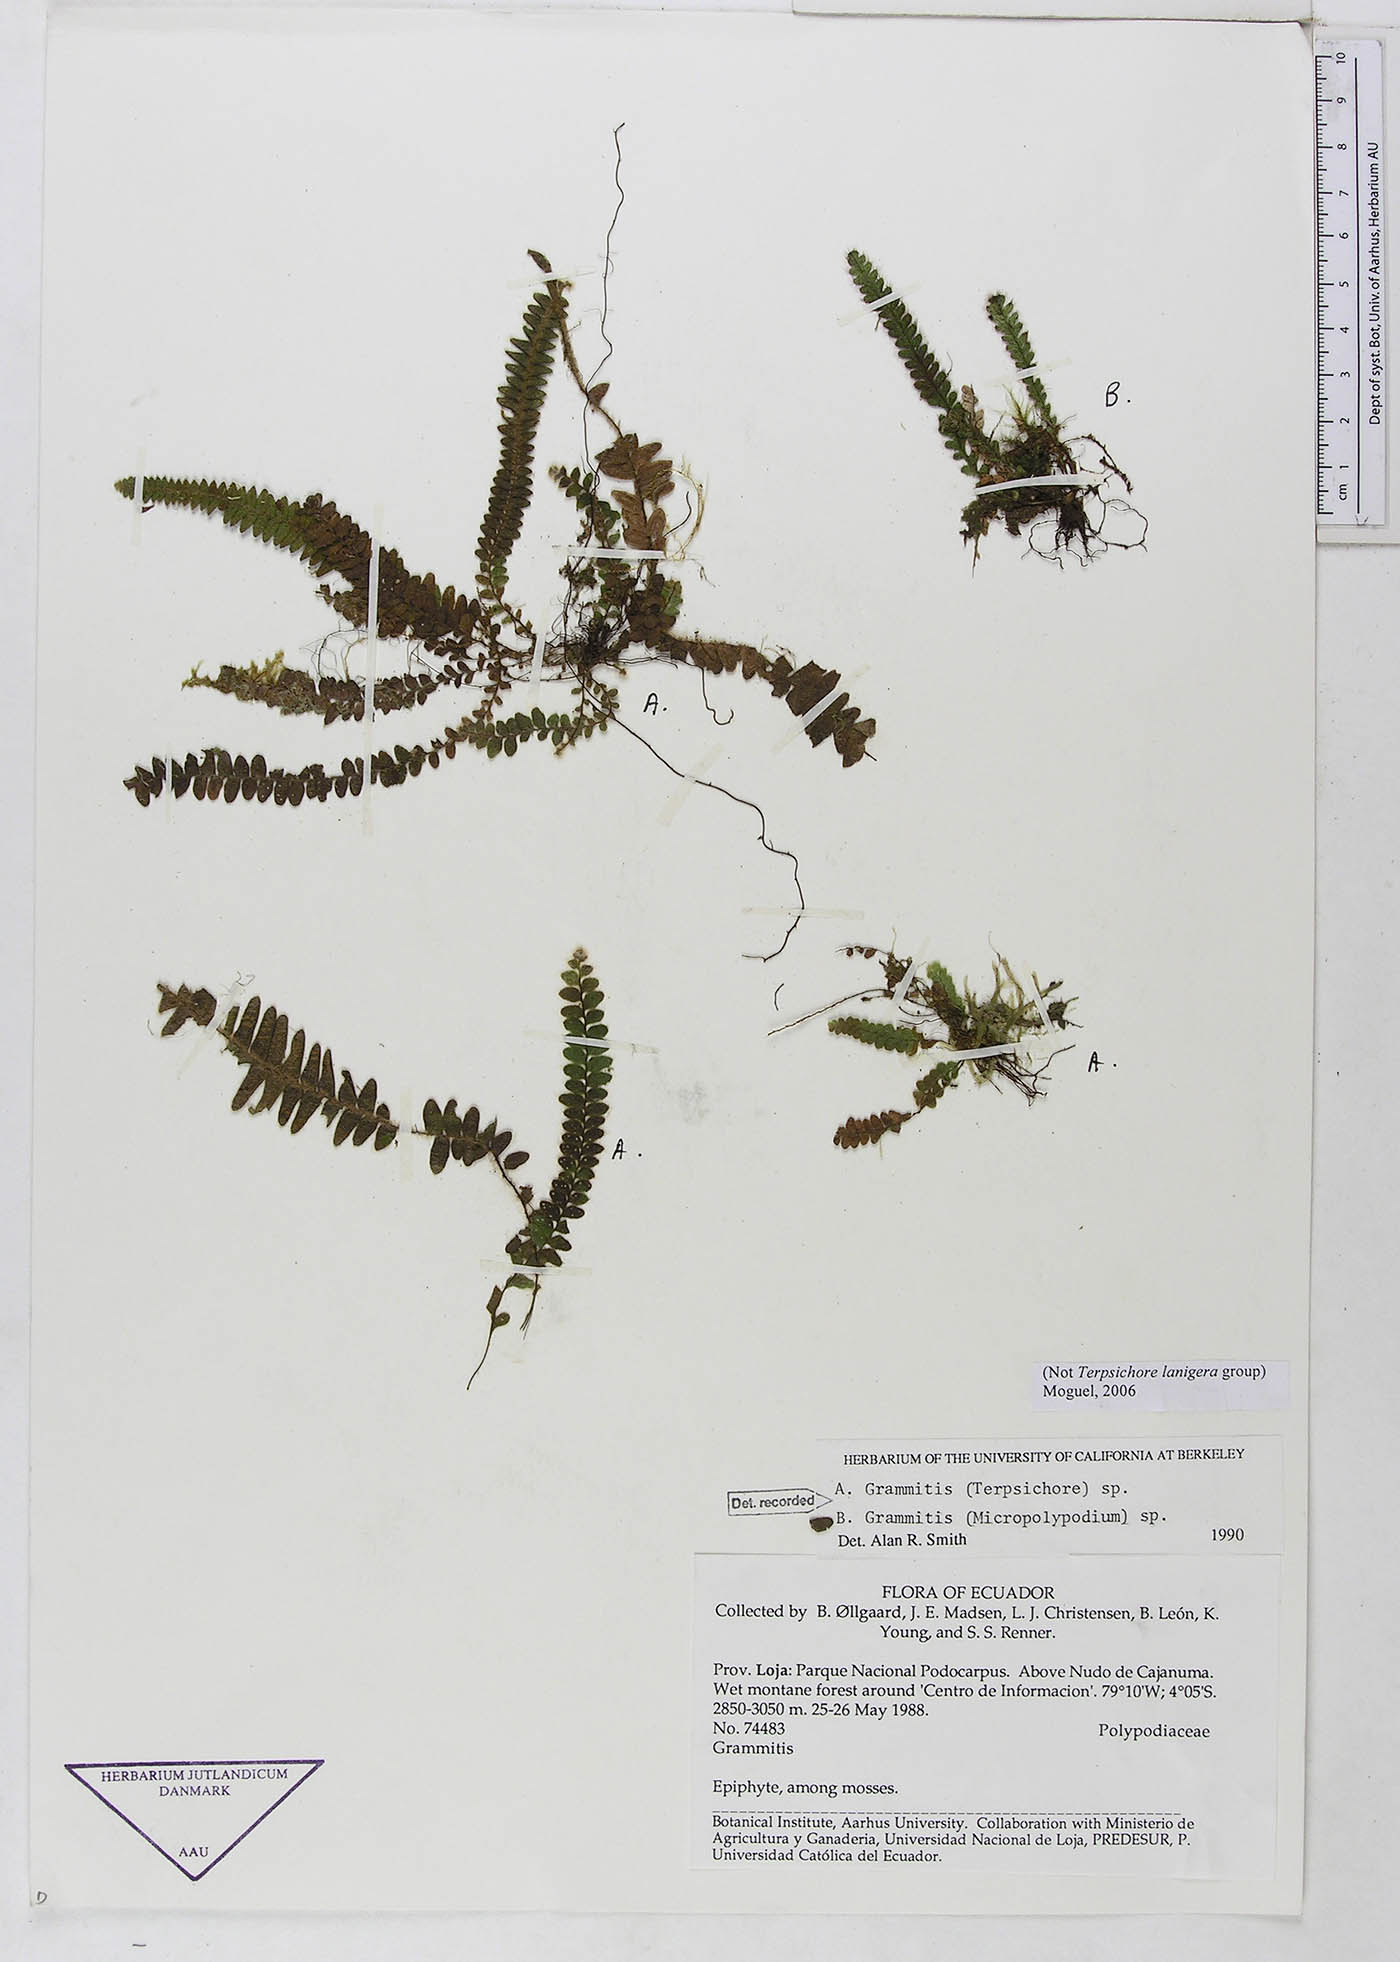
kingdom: Plantae
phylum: Tracheophyta
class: Polypodiopsida
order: Polypodiales
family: Polypodiaceae
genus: Grammitis
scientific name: Grammitis
